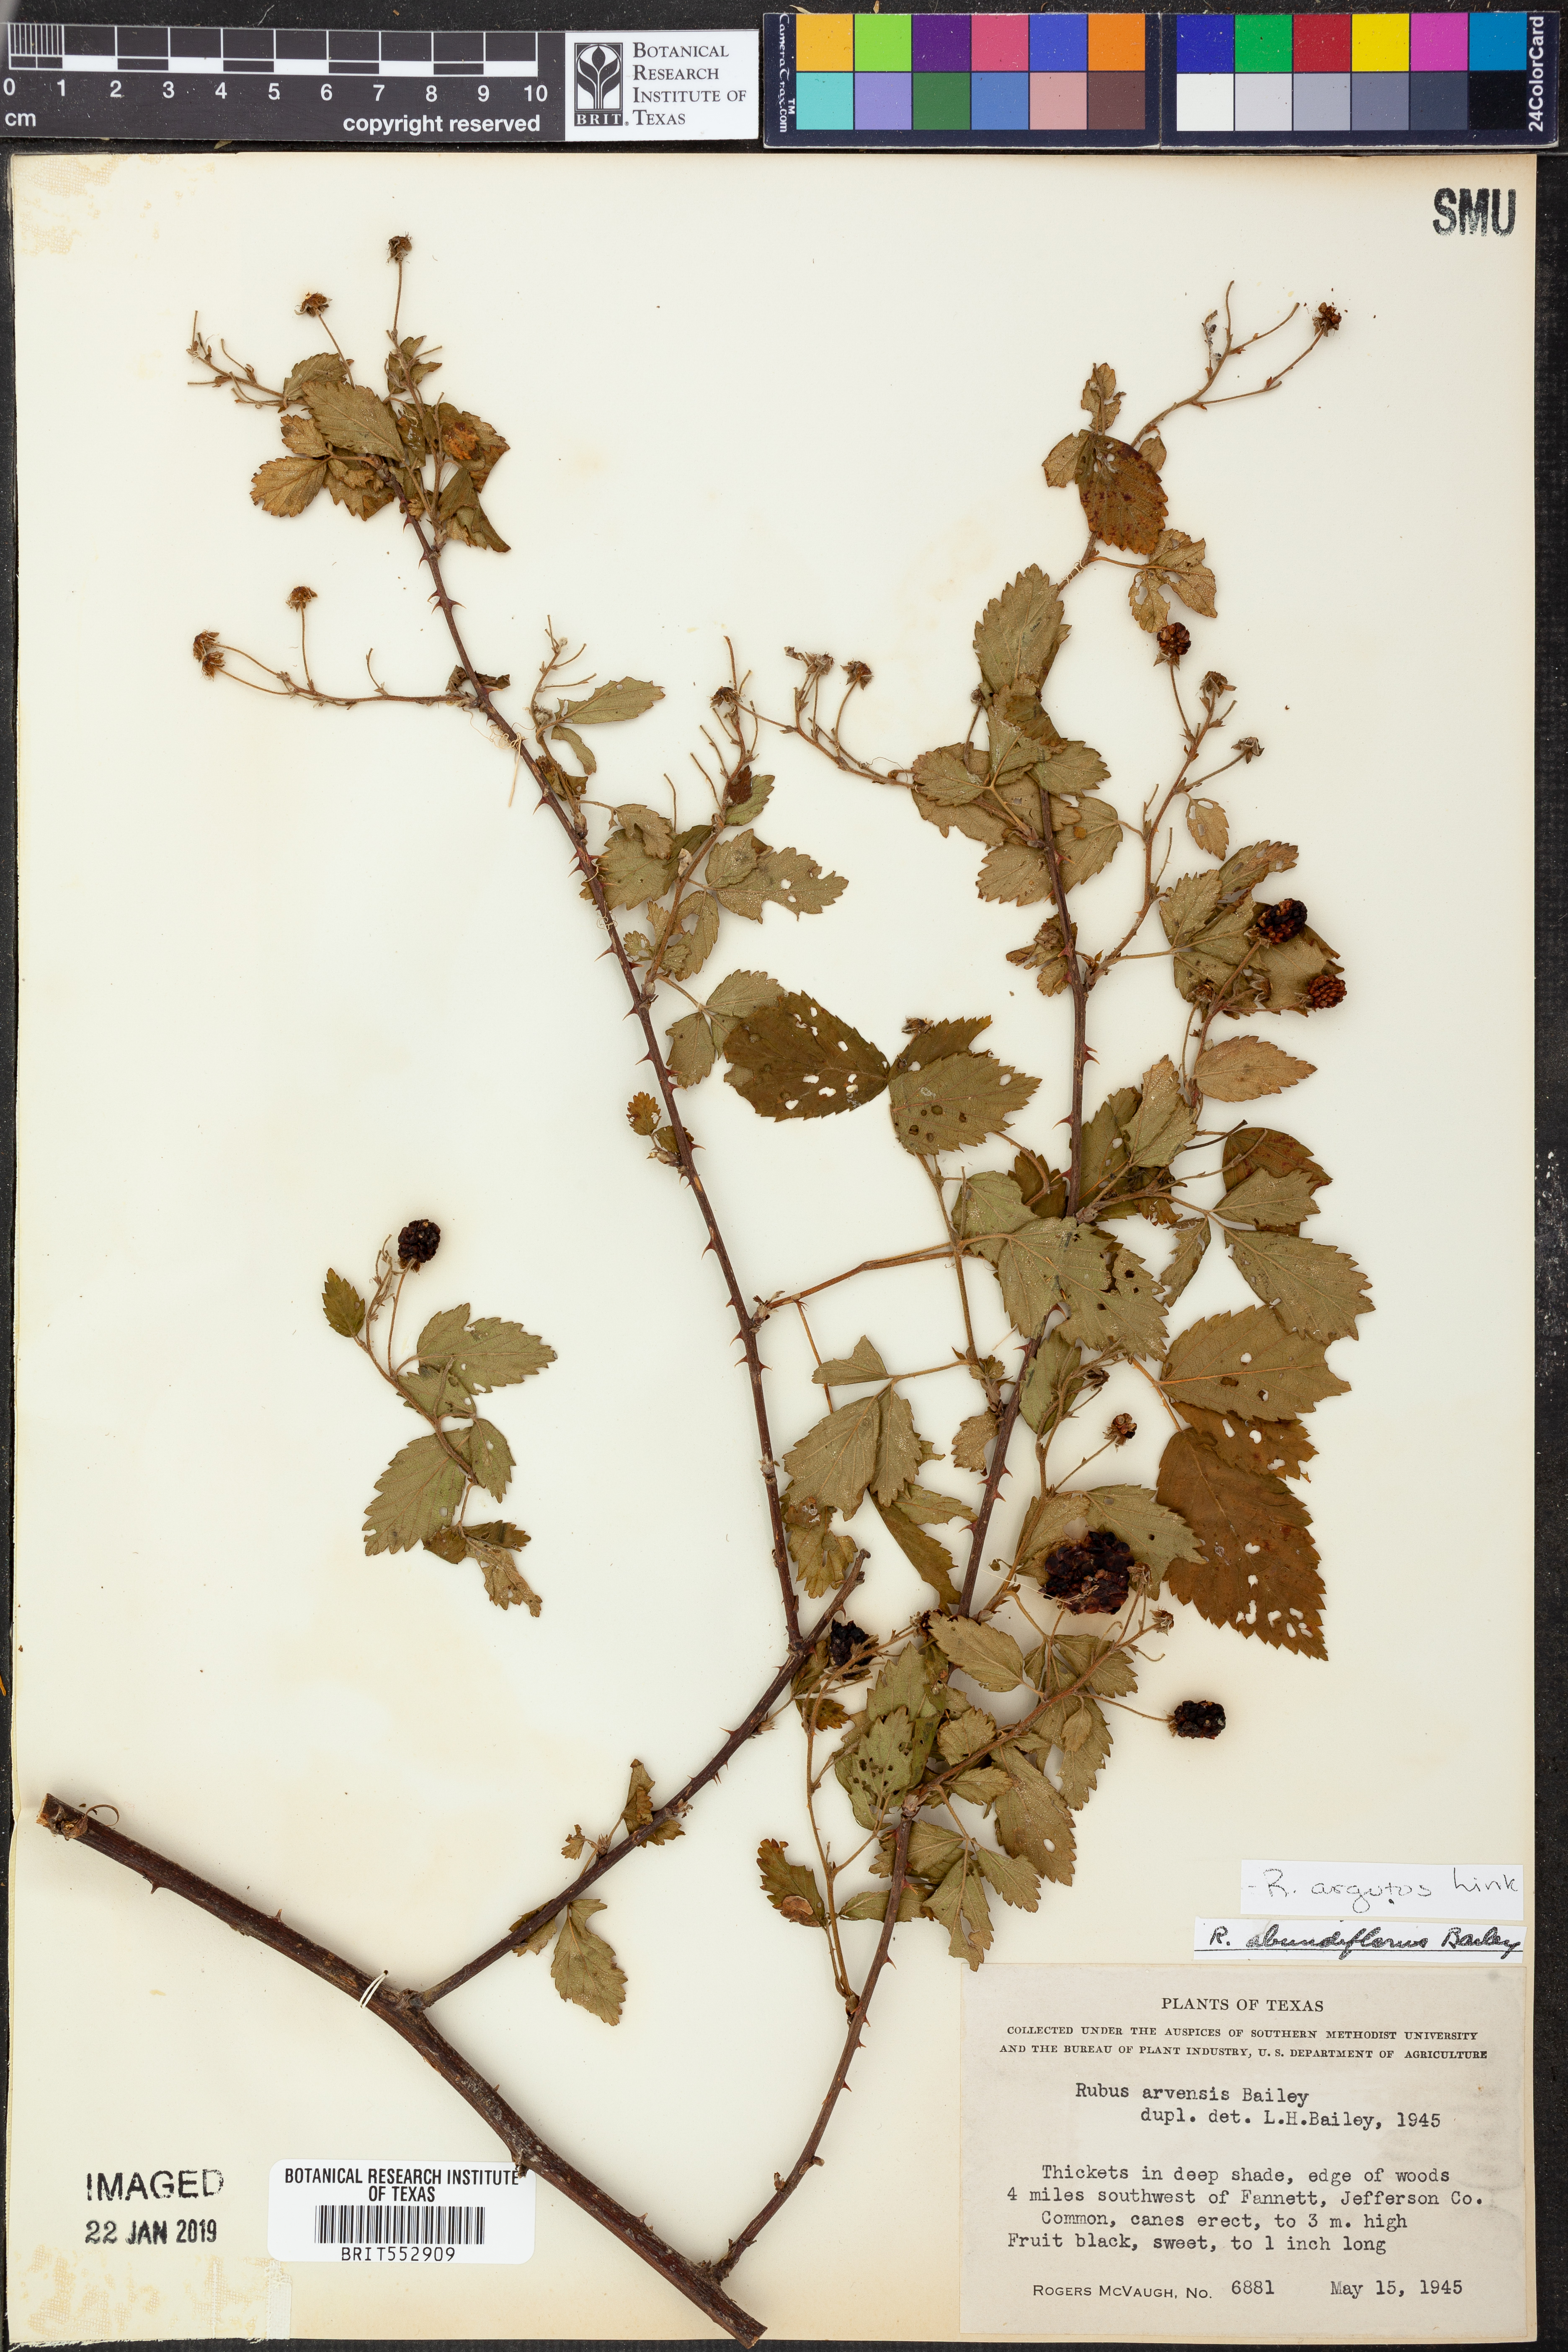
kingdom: Plantae
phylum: Tracheophyta
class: Magnoliopsida
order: Rosales
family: Rosaceae
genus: Rubus
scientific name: Rubus argutus
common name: Sawtooth blackberry
